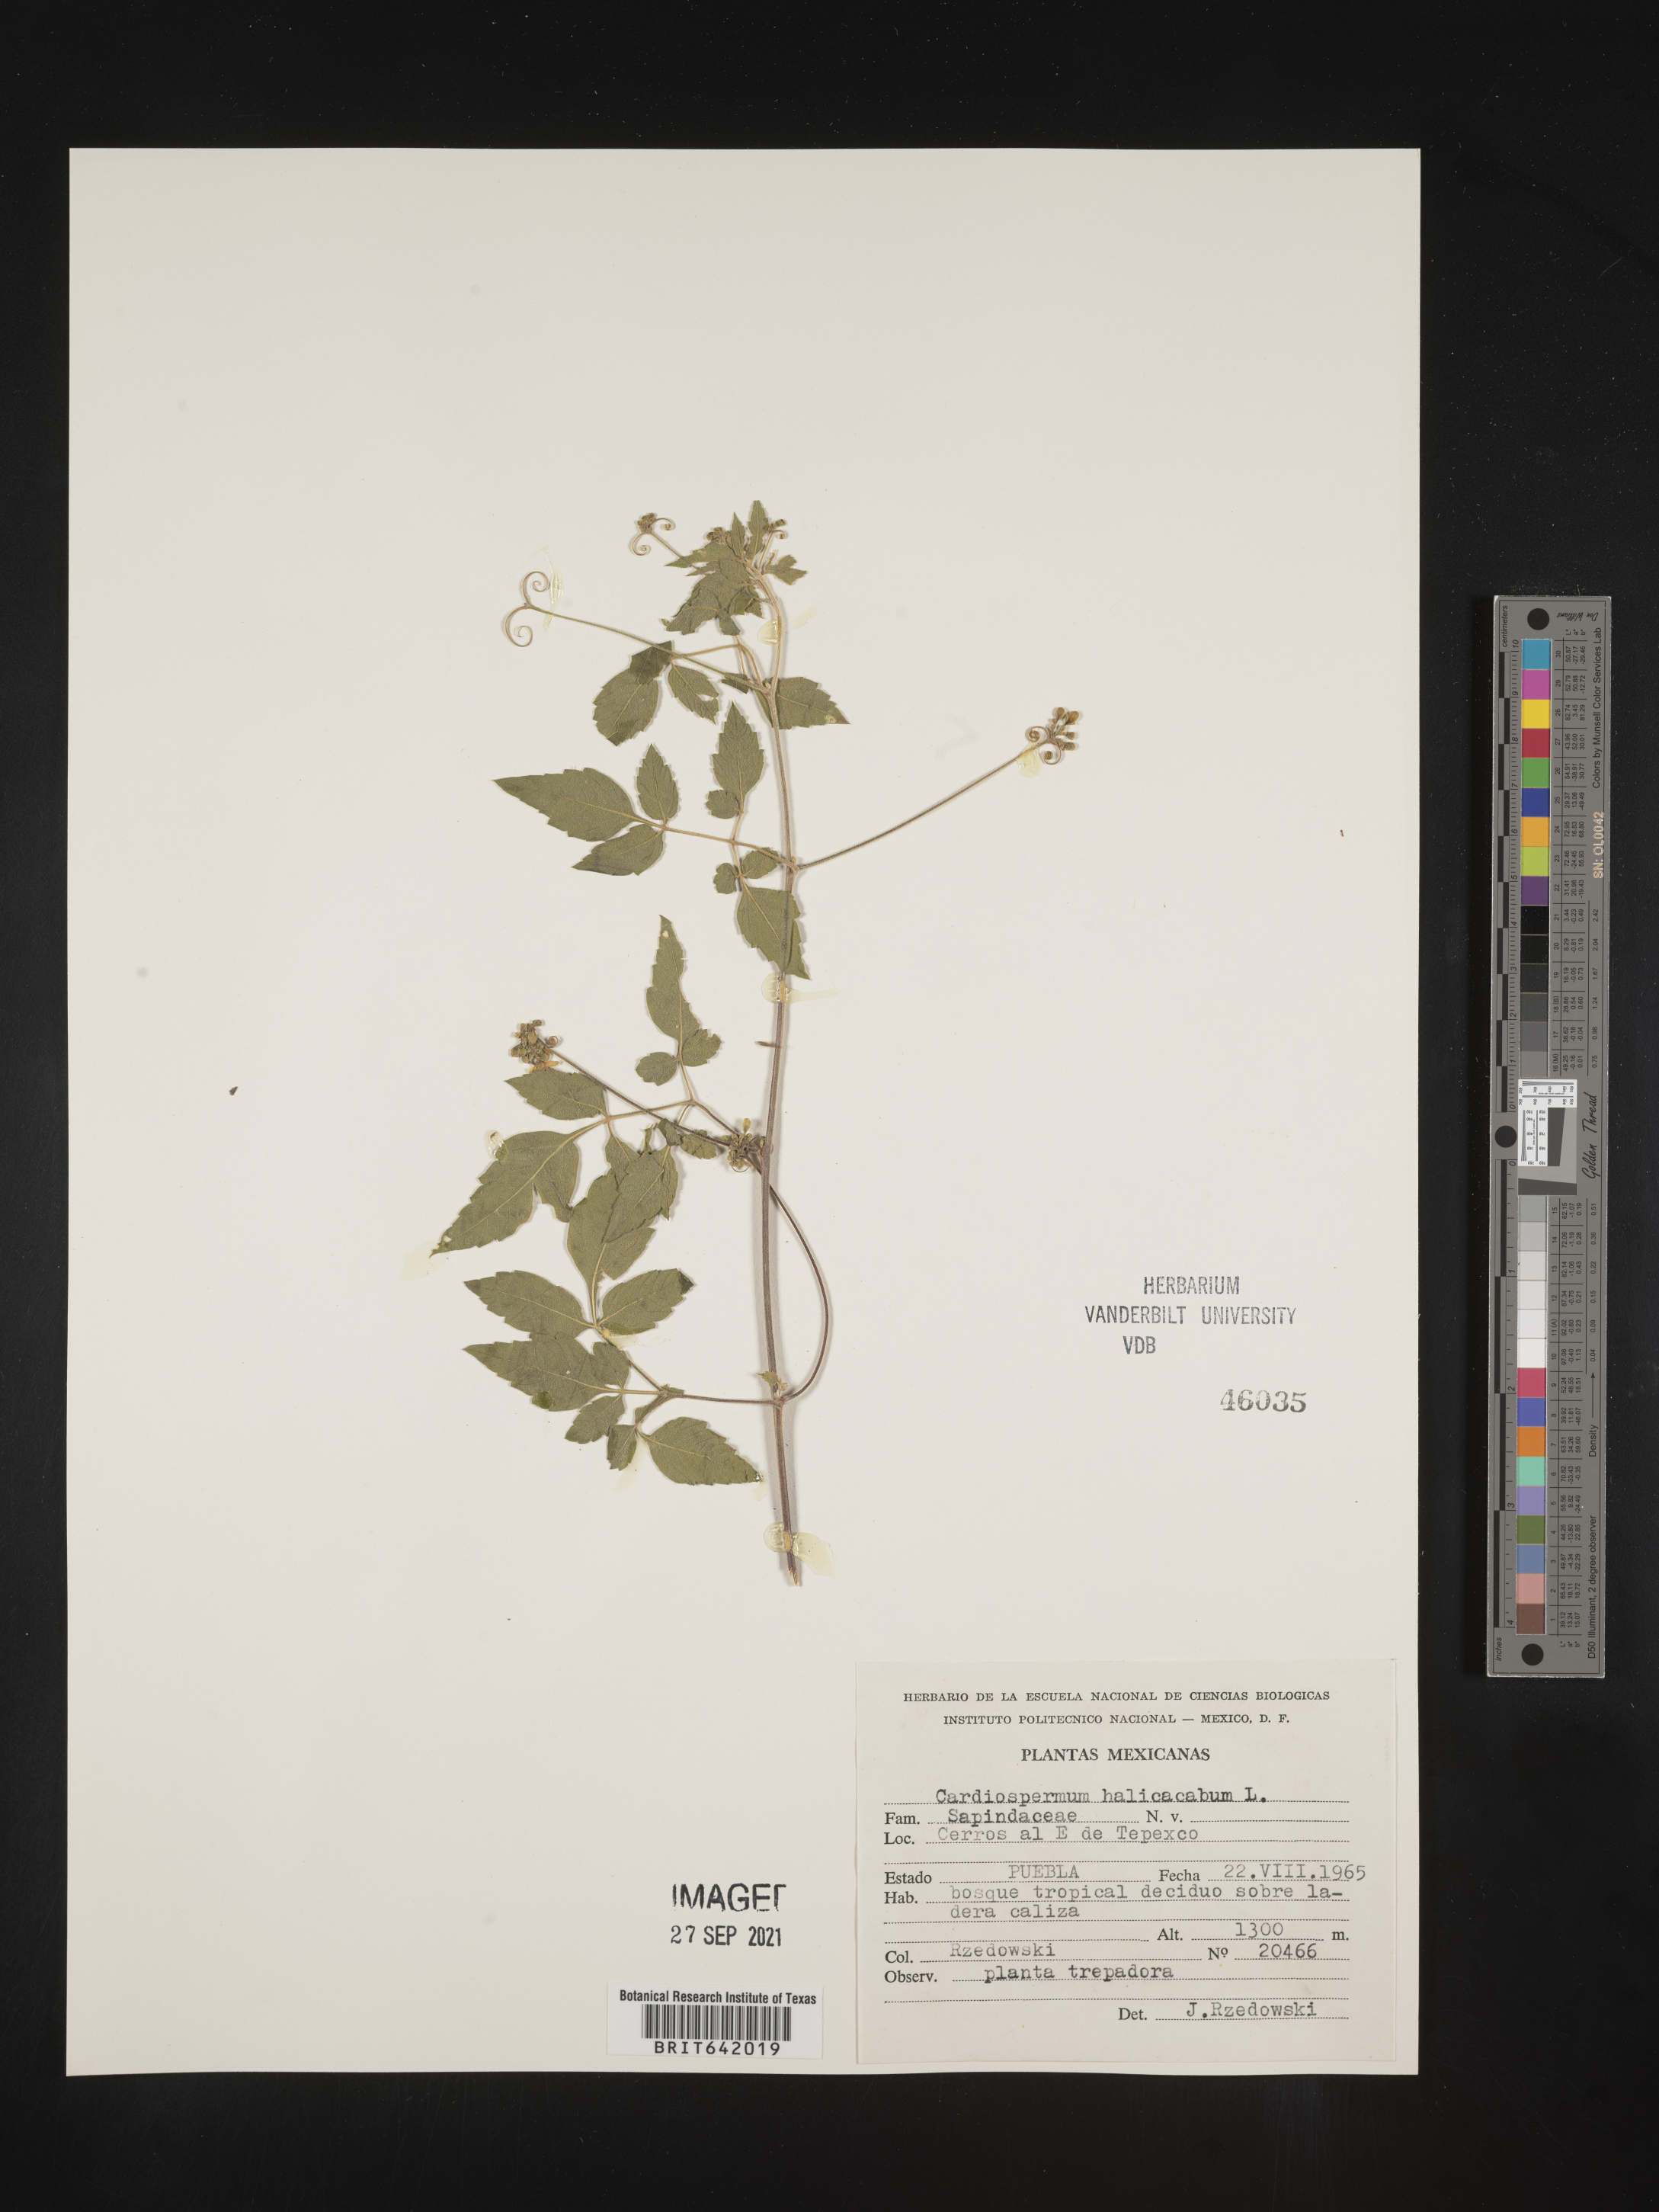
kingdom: Plantae
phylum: Tracheophyta
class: Magnoliopsida
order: Sapindales
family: Sapindaceae
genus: Cardiospermum
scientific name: Cardiospermum
